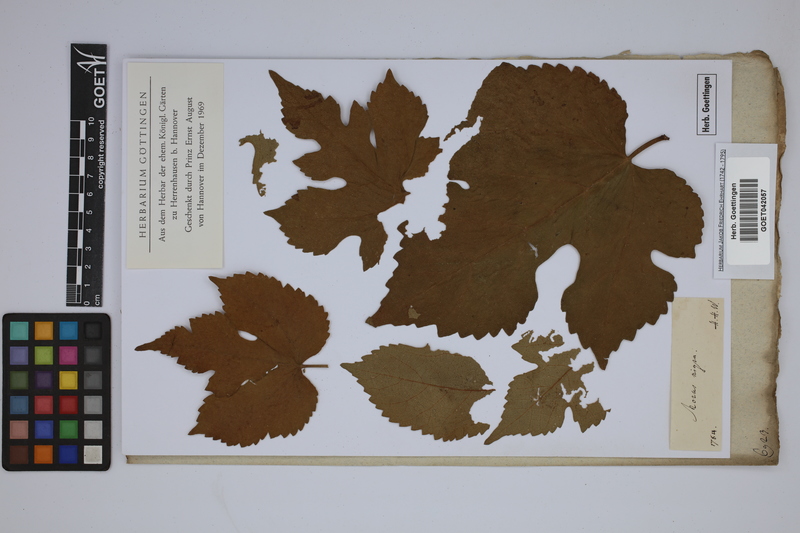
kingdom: Plantae
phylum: Tracheophyta
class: Magnoliopsida
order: Rosales
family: Moraceae
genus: Morus
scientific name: Morus nigra
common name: Black mulberry
